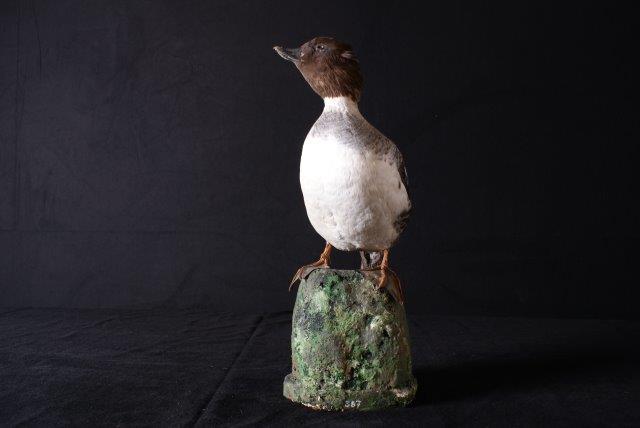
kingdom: Animalia
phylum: Chordata
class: Aves
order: Anseriformes
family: Anatidae
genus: Bucephala
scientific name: Bucephala clangula
